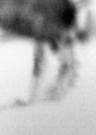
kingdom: Animalia
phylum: Arthropoda
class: Copepoda
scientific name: Copepoda
